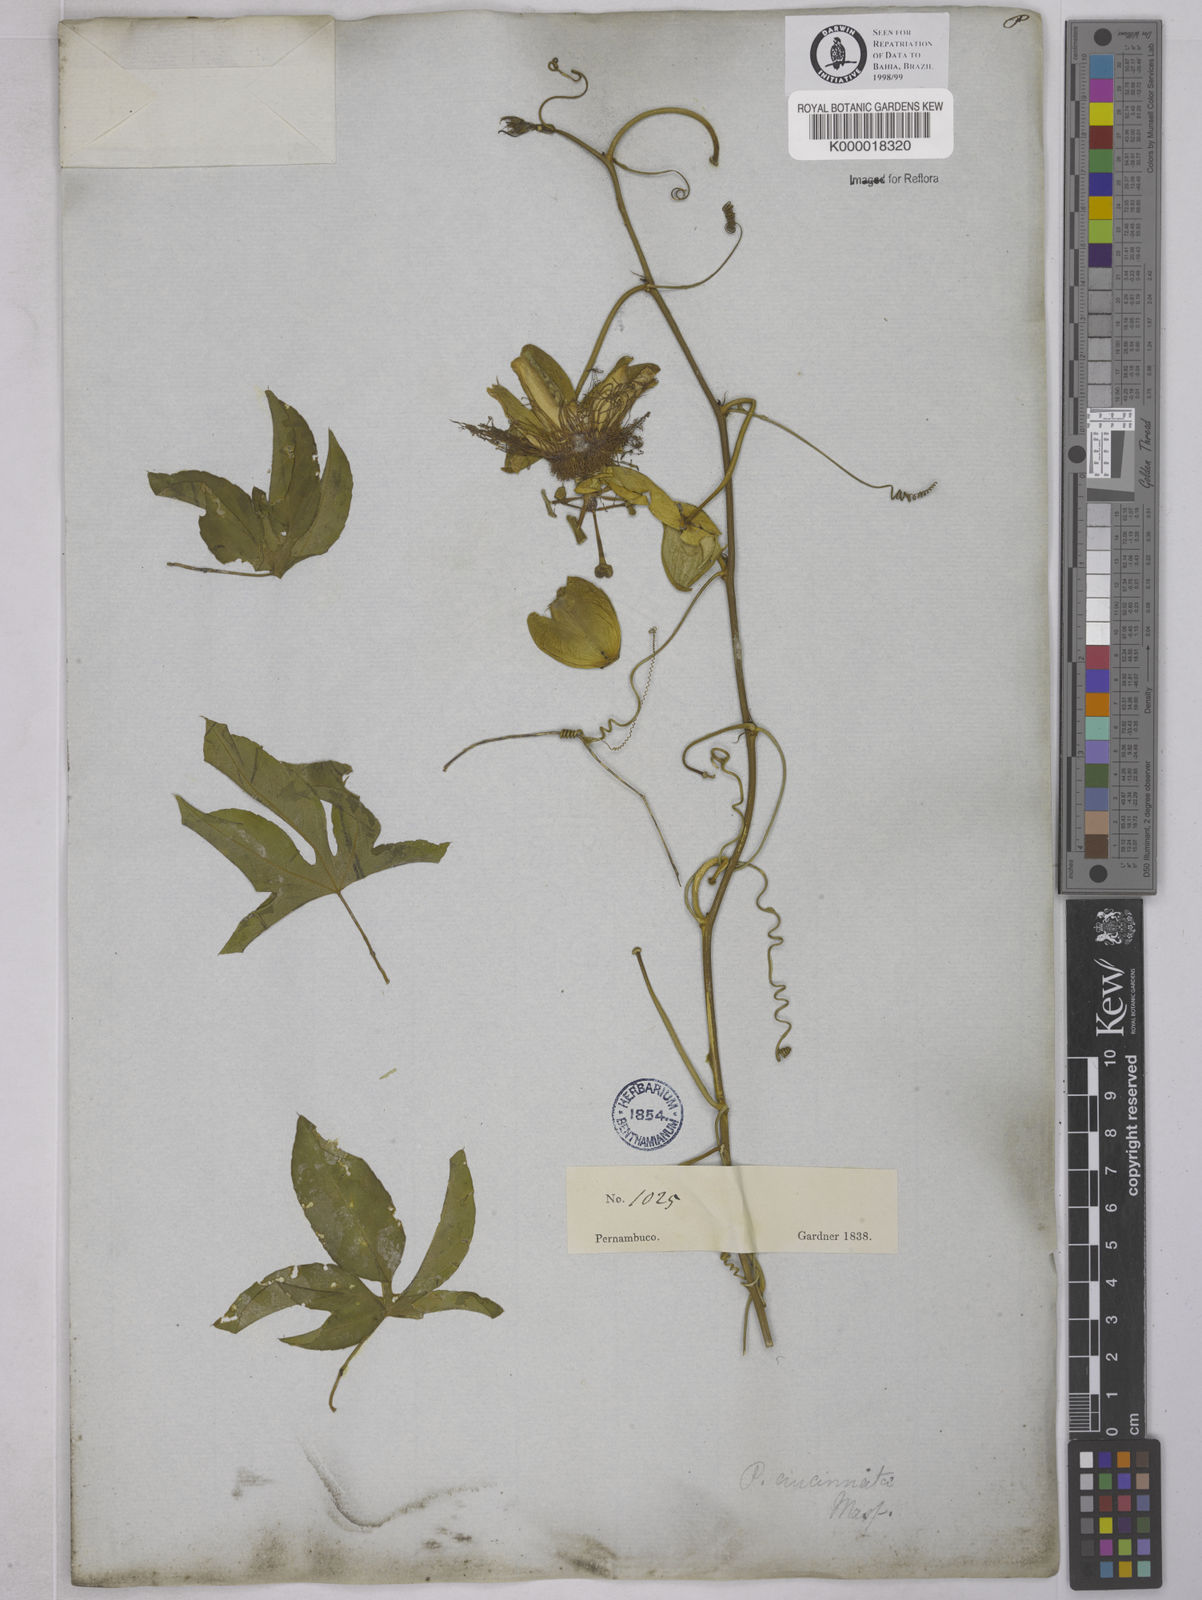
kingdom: Plantae
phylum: Tracheophyta
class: Magnoliopsida
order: Malpighiales
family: Passifloraceae
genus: Passiflora
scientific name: Passiflora cincinnata
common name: Crato passionvine
